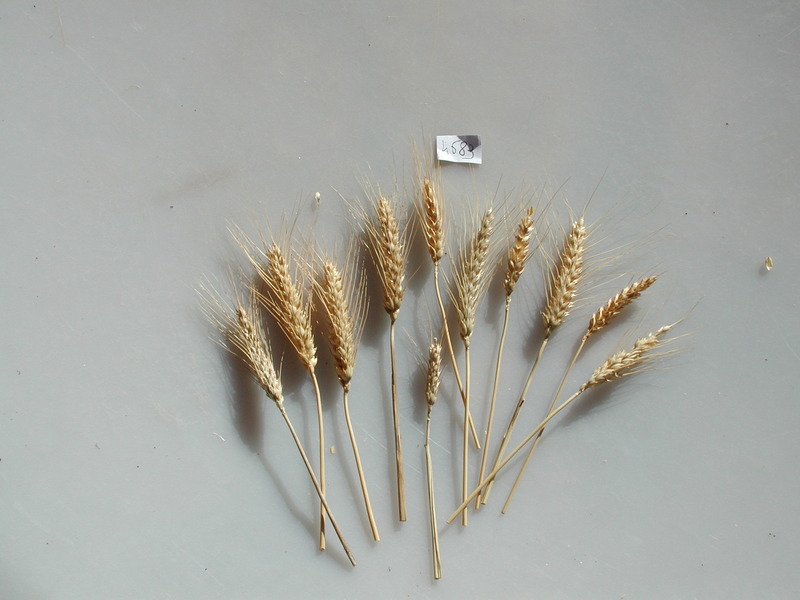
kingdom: Plantae
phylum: Tracheophyta
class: Liliopsida
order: Poales
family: Poaceae
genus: Triticum
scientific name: Triticum aestivum
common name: Wheat
